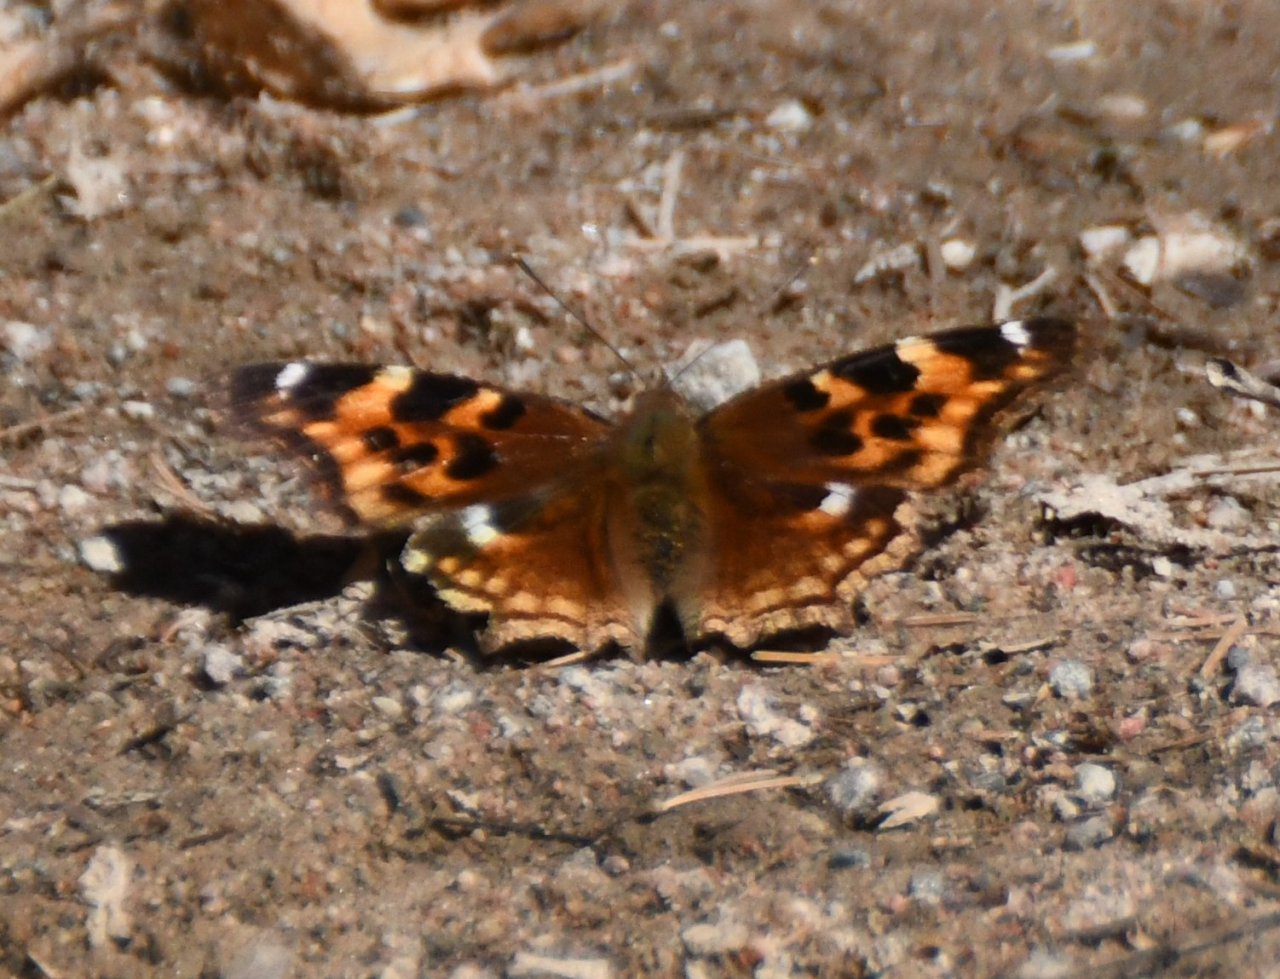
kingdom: Animalia
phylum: Arthropoda
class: Insecta
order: Lepidoptera
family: Nymphalidae
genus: Polygonia
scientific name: Polygonia vaualbum
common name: Compton Tortoiseshell
